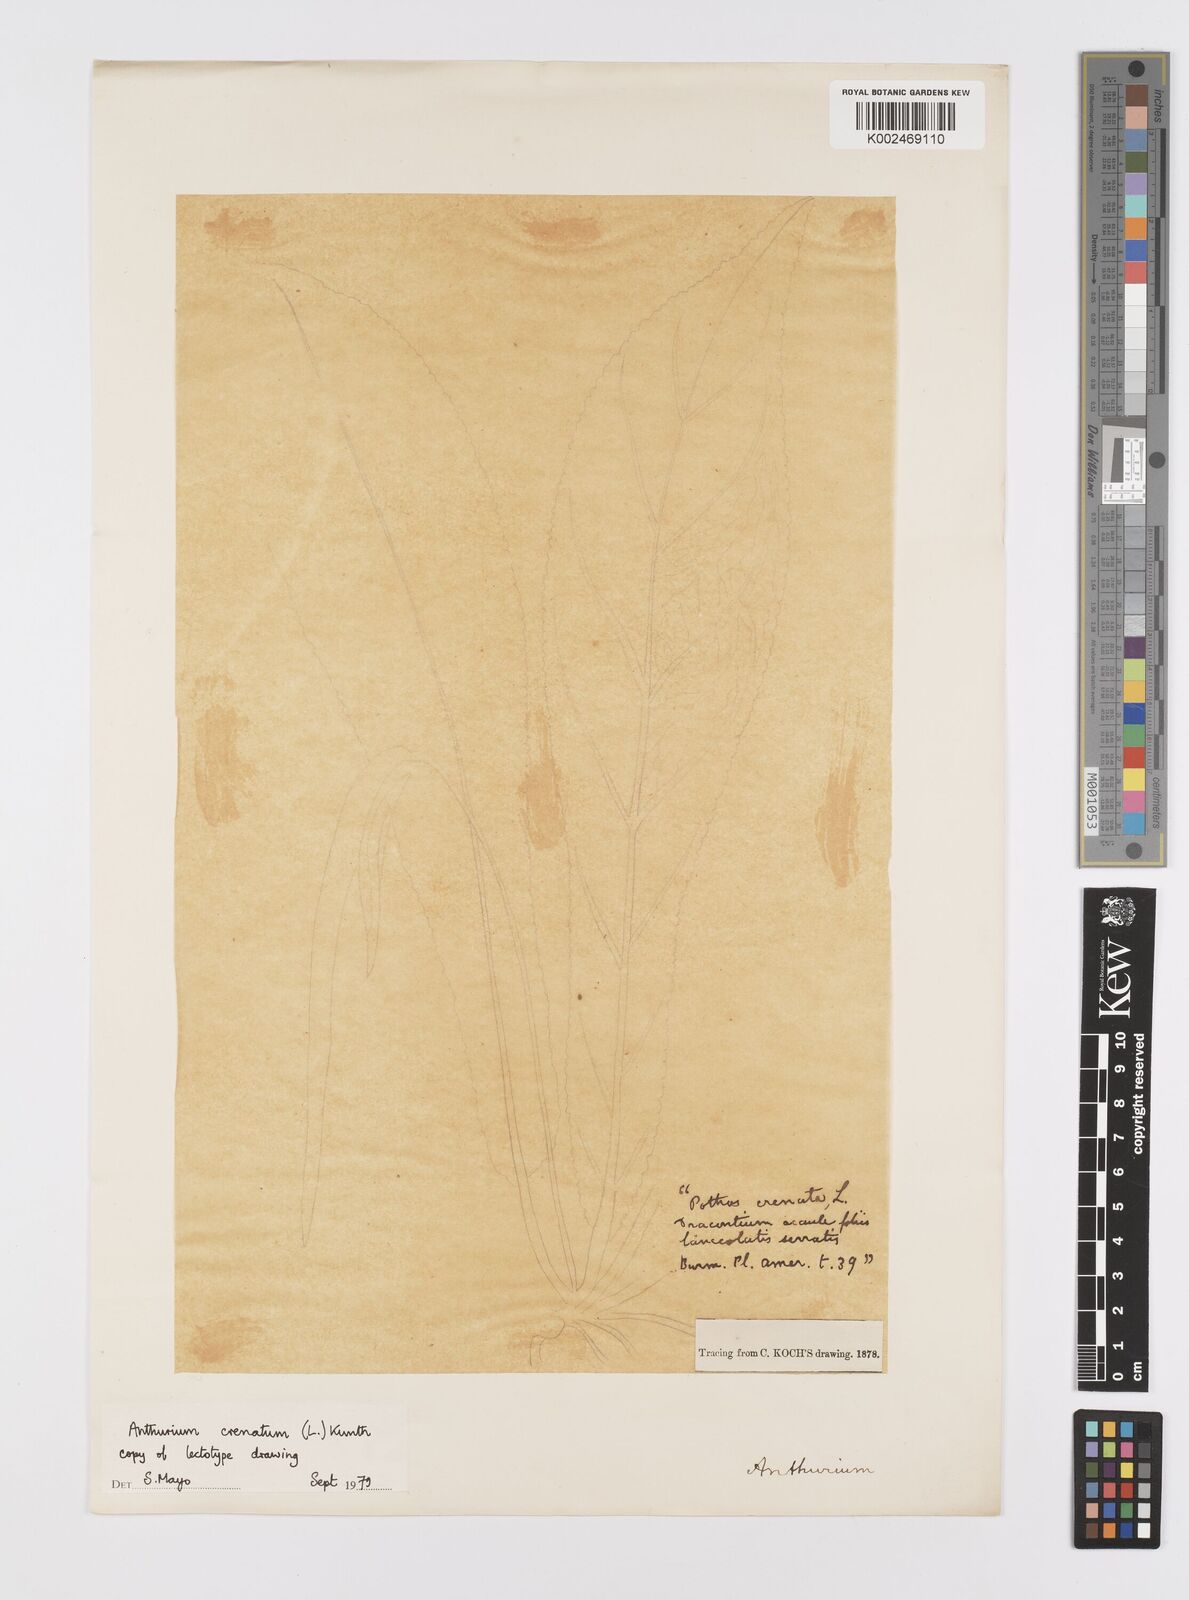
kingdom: Plantae
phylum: Tracheophyta
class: Liliopsida
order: Alismatales
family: Araceae
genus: Anthurium
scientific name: Anthurium crenatum
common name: Scalloped laceleaf
